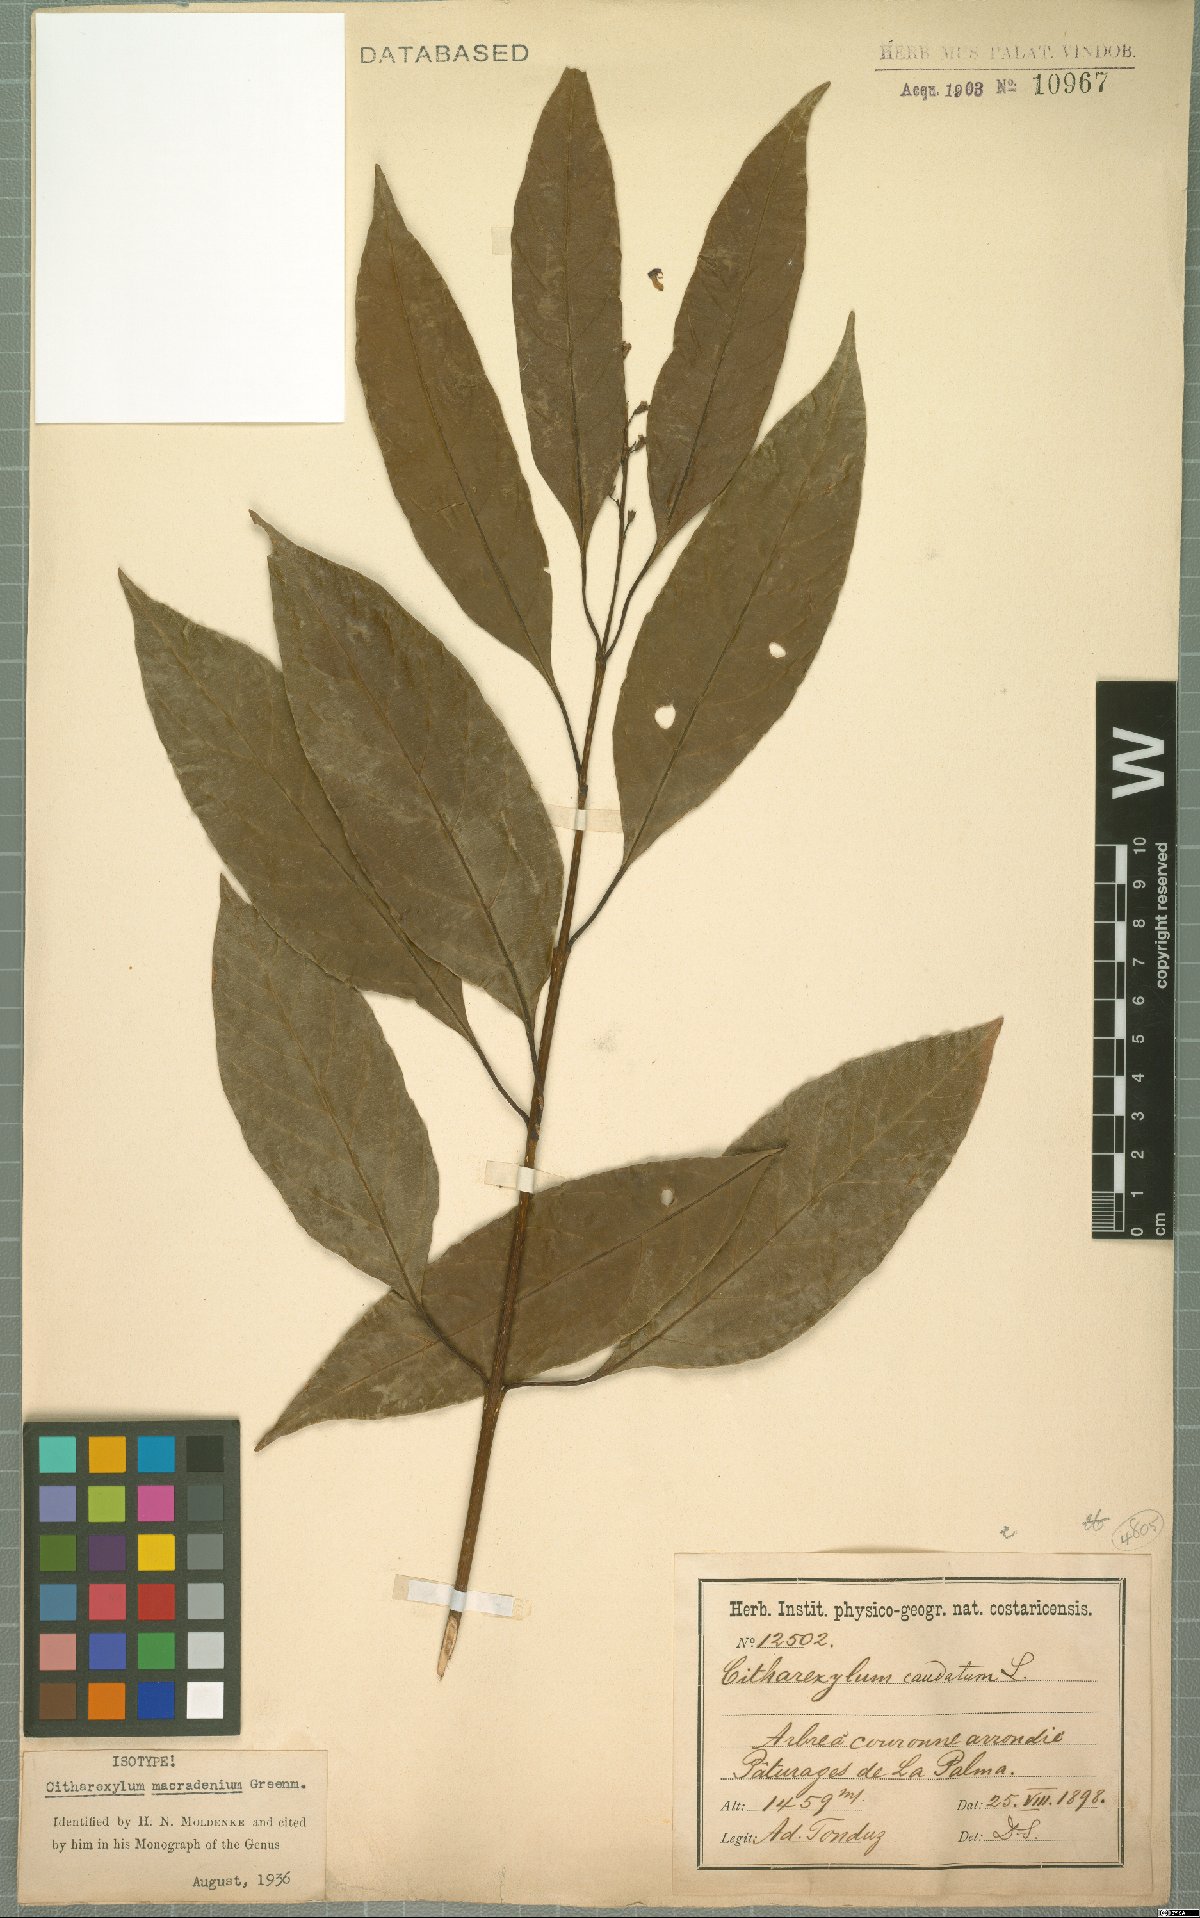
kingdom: Plantae
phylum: Tracheophyta
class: Magnoliopsida
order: Lamiales
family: Verbenaceae
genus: Citharexylum
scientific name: Citharexylum macradenium
